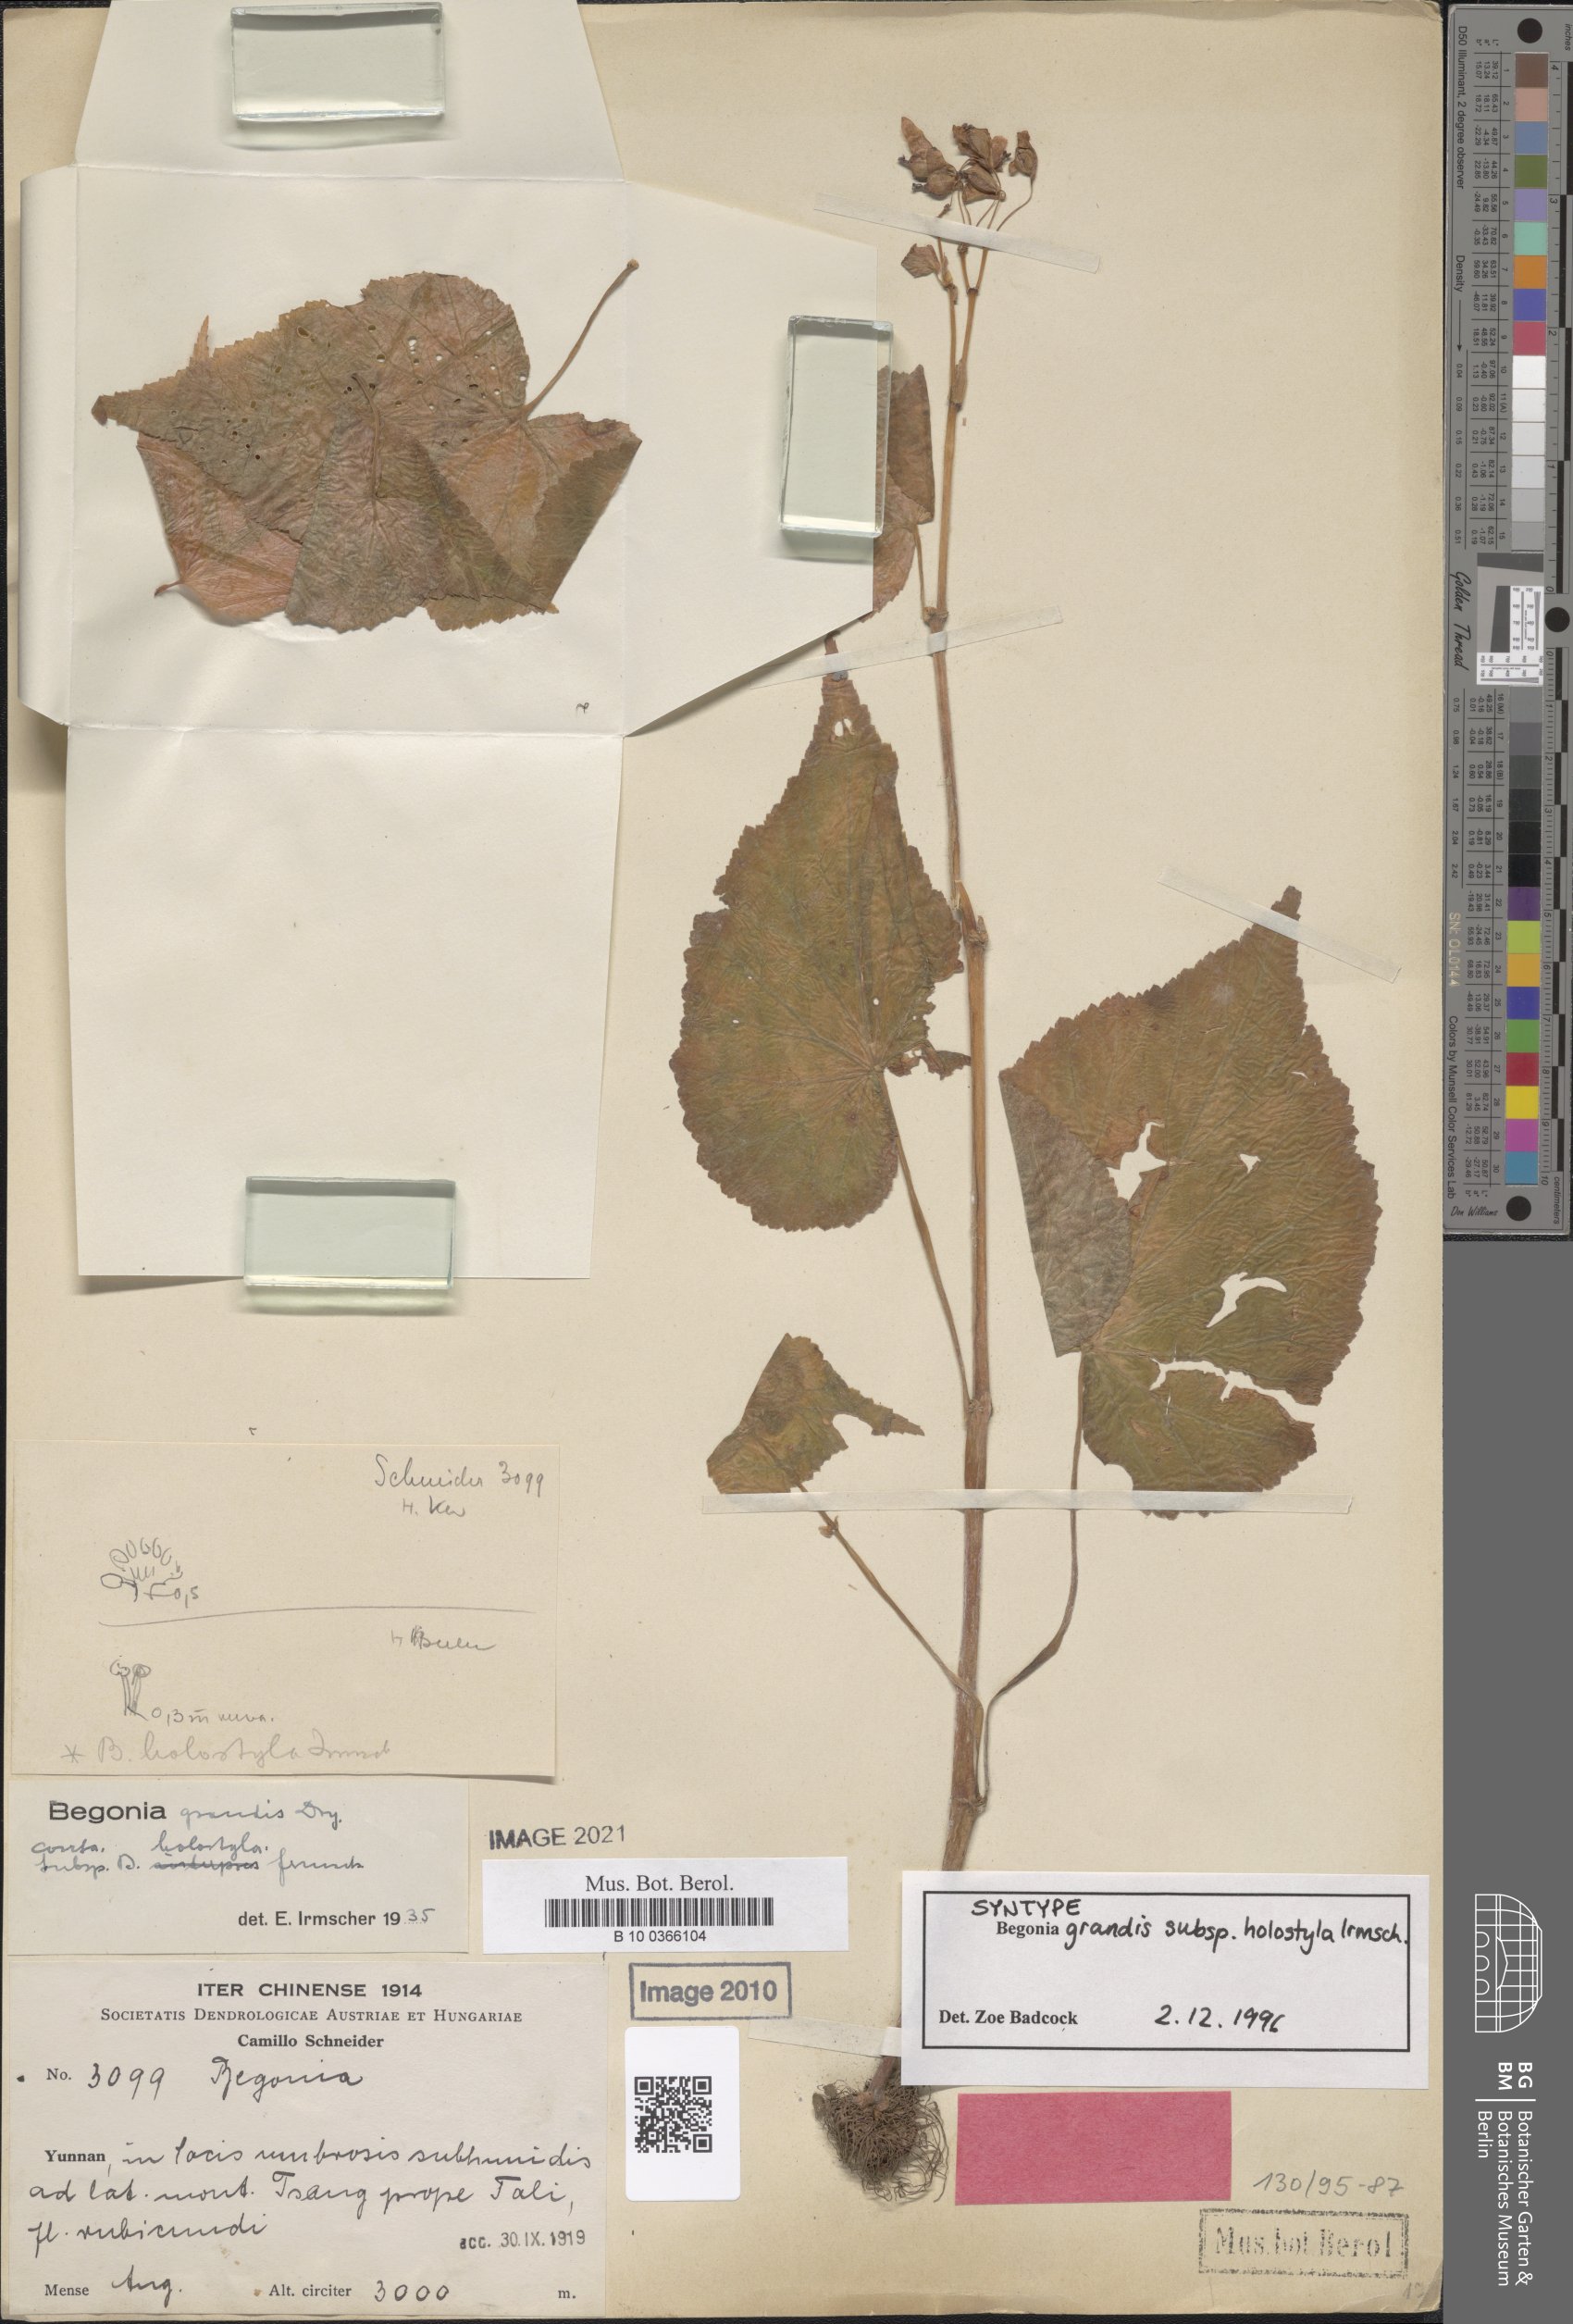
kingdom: Plantae
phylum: Tracheophyta
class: Magnoliopsida
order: Cucurbitales
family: Begoniaceae
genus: Begonia
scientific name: Begonia grandis
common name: Hardy begonia
